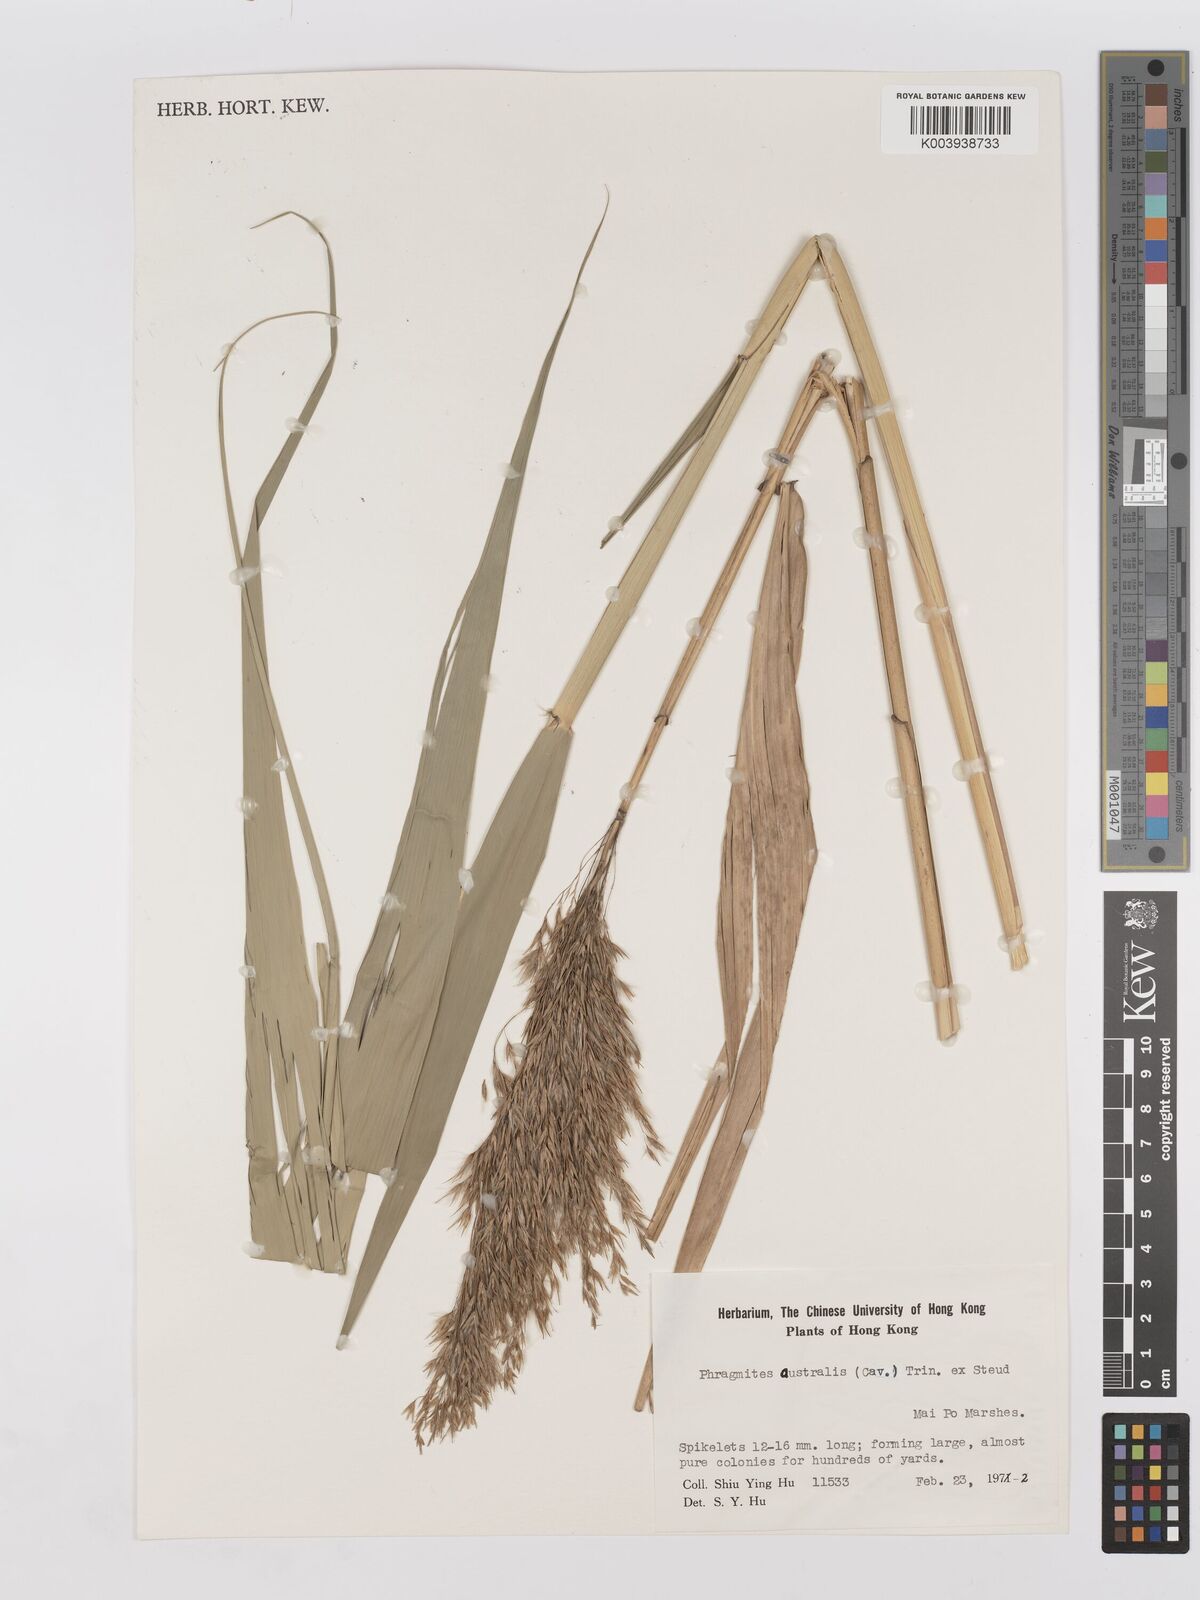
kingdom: Plantae
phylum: Tracheophyta
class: Liliopsida
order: Poales
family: Poaceae
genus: Phragmites
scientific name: Phragmites australis
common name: Common reed
